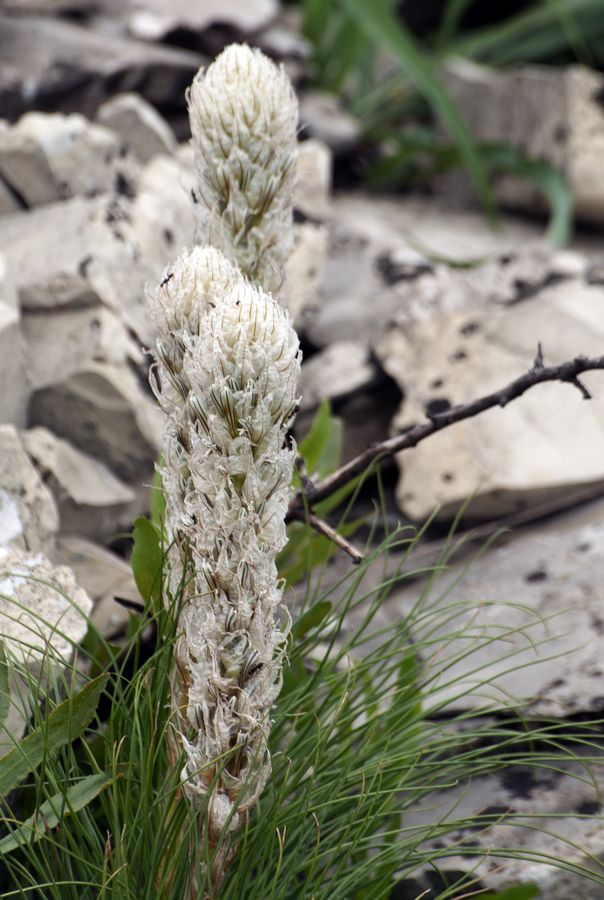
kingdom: Plantae
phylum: Tracheophyta
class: Liliopsida
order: Asparagales
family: Asphodelaceae
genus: Asphodeline
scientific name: Asphodeline taurica
